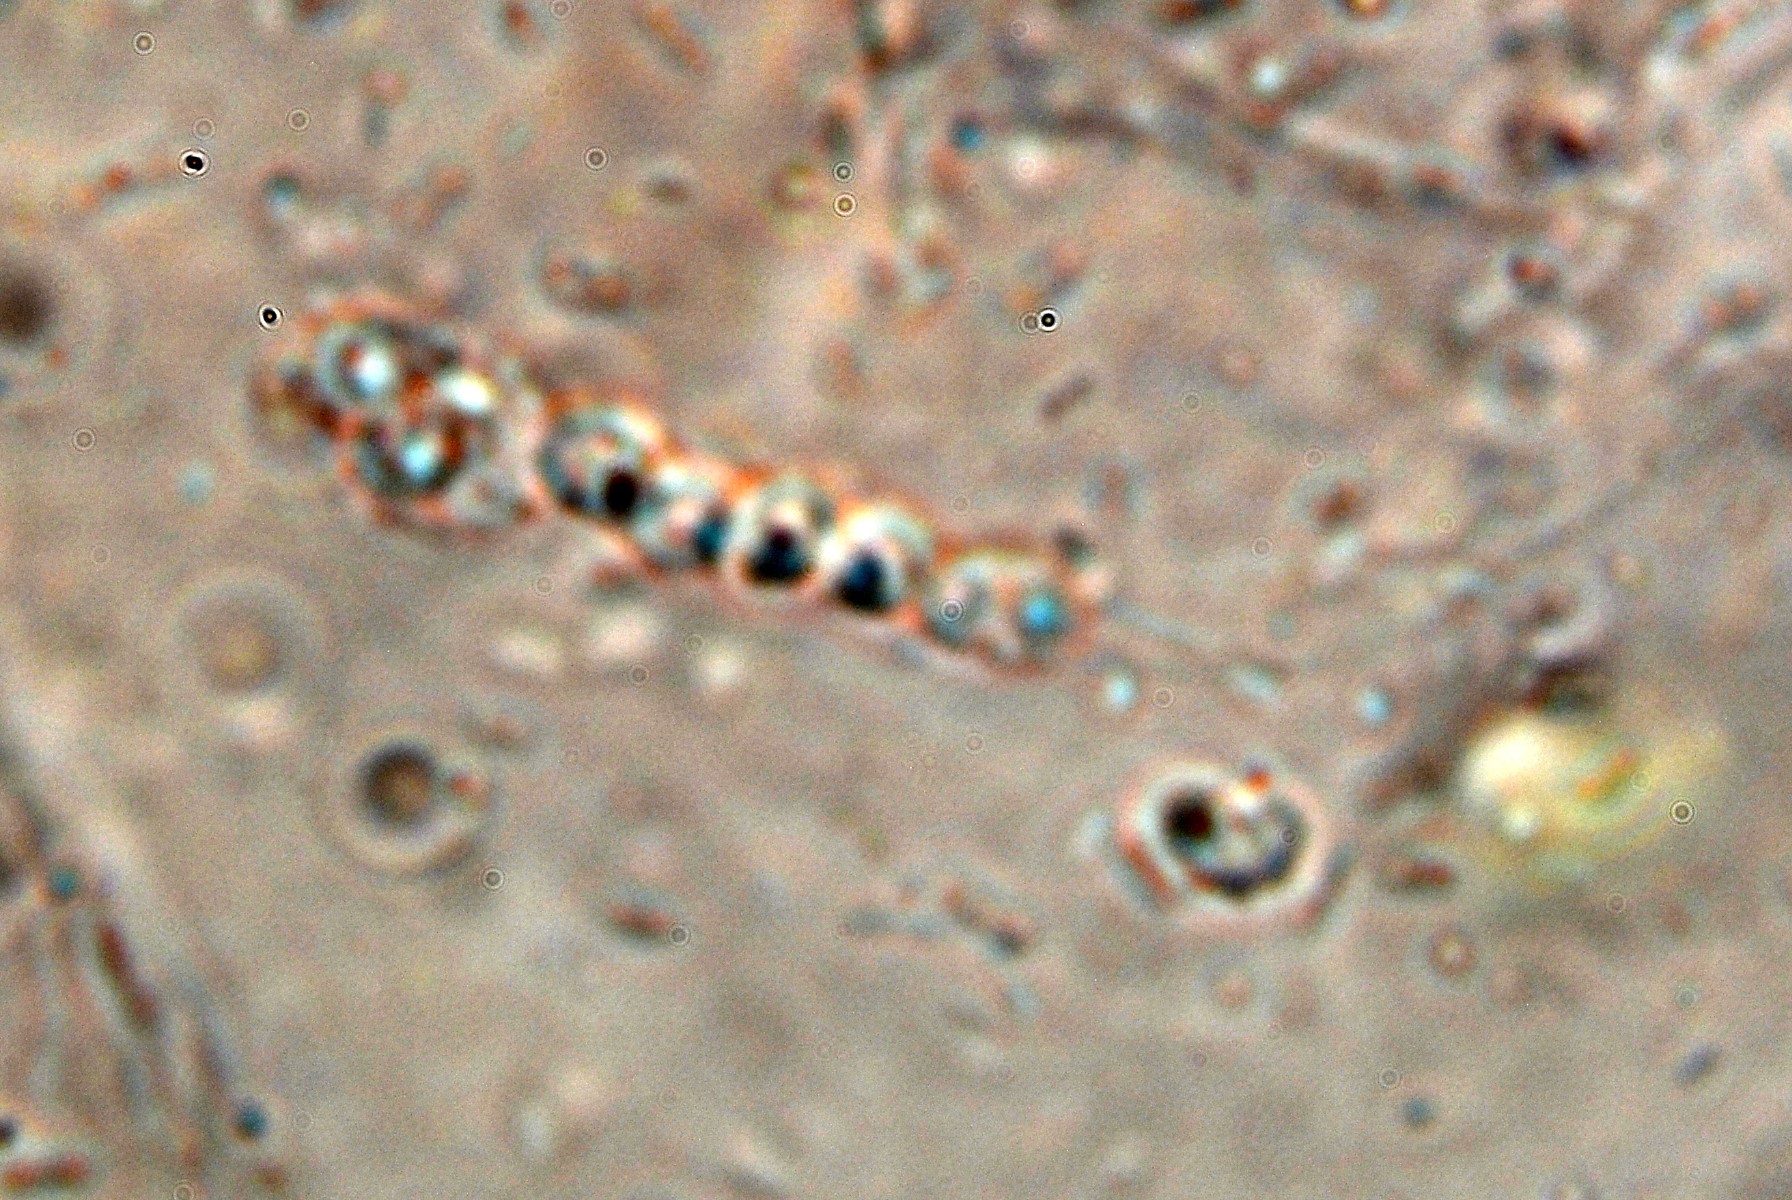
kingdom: Fungi
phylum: Ascomycota
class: Orbiliomycetes
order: Orbiliales
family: Orbiliaceae
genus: Orbilia
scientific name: Orbilia xanthostigma
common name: krumsporet voksskive
